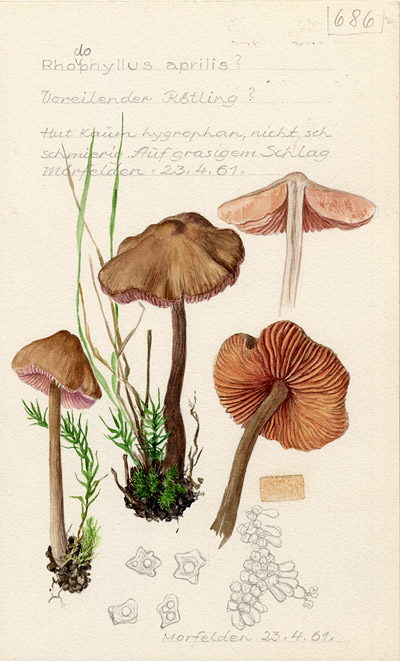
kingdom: Fungi
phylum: Basidiomycota
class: Agaricomycetes
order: Agaricales
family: Entolomataceae
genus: Entoloma
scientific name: Entoloma aprile
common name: Aprilrødspore
